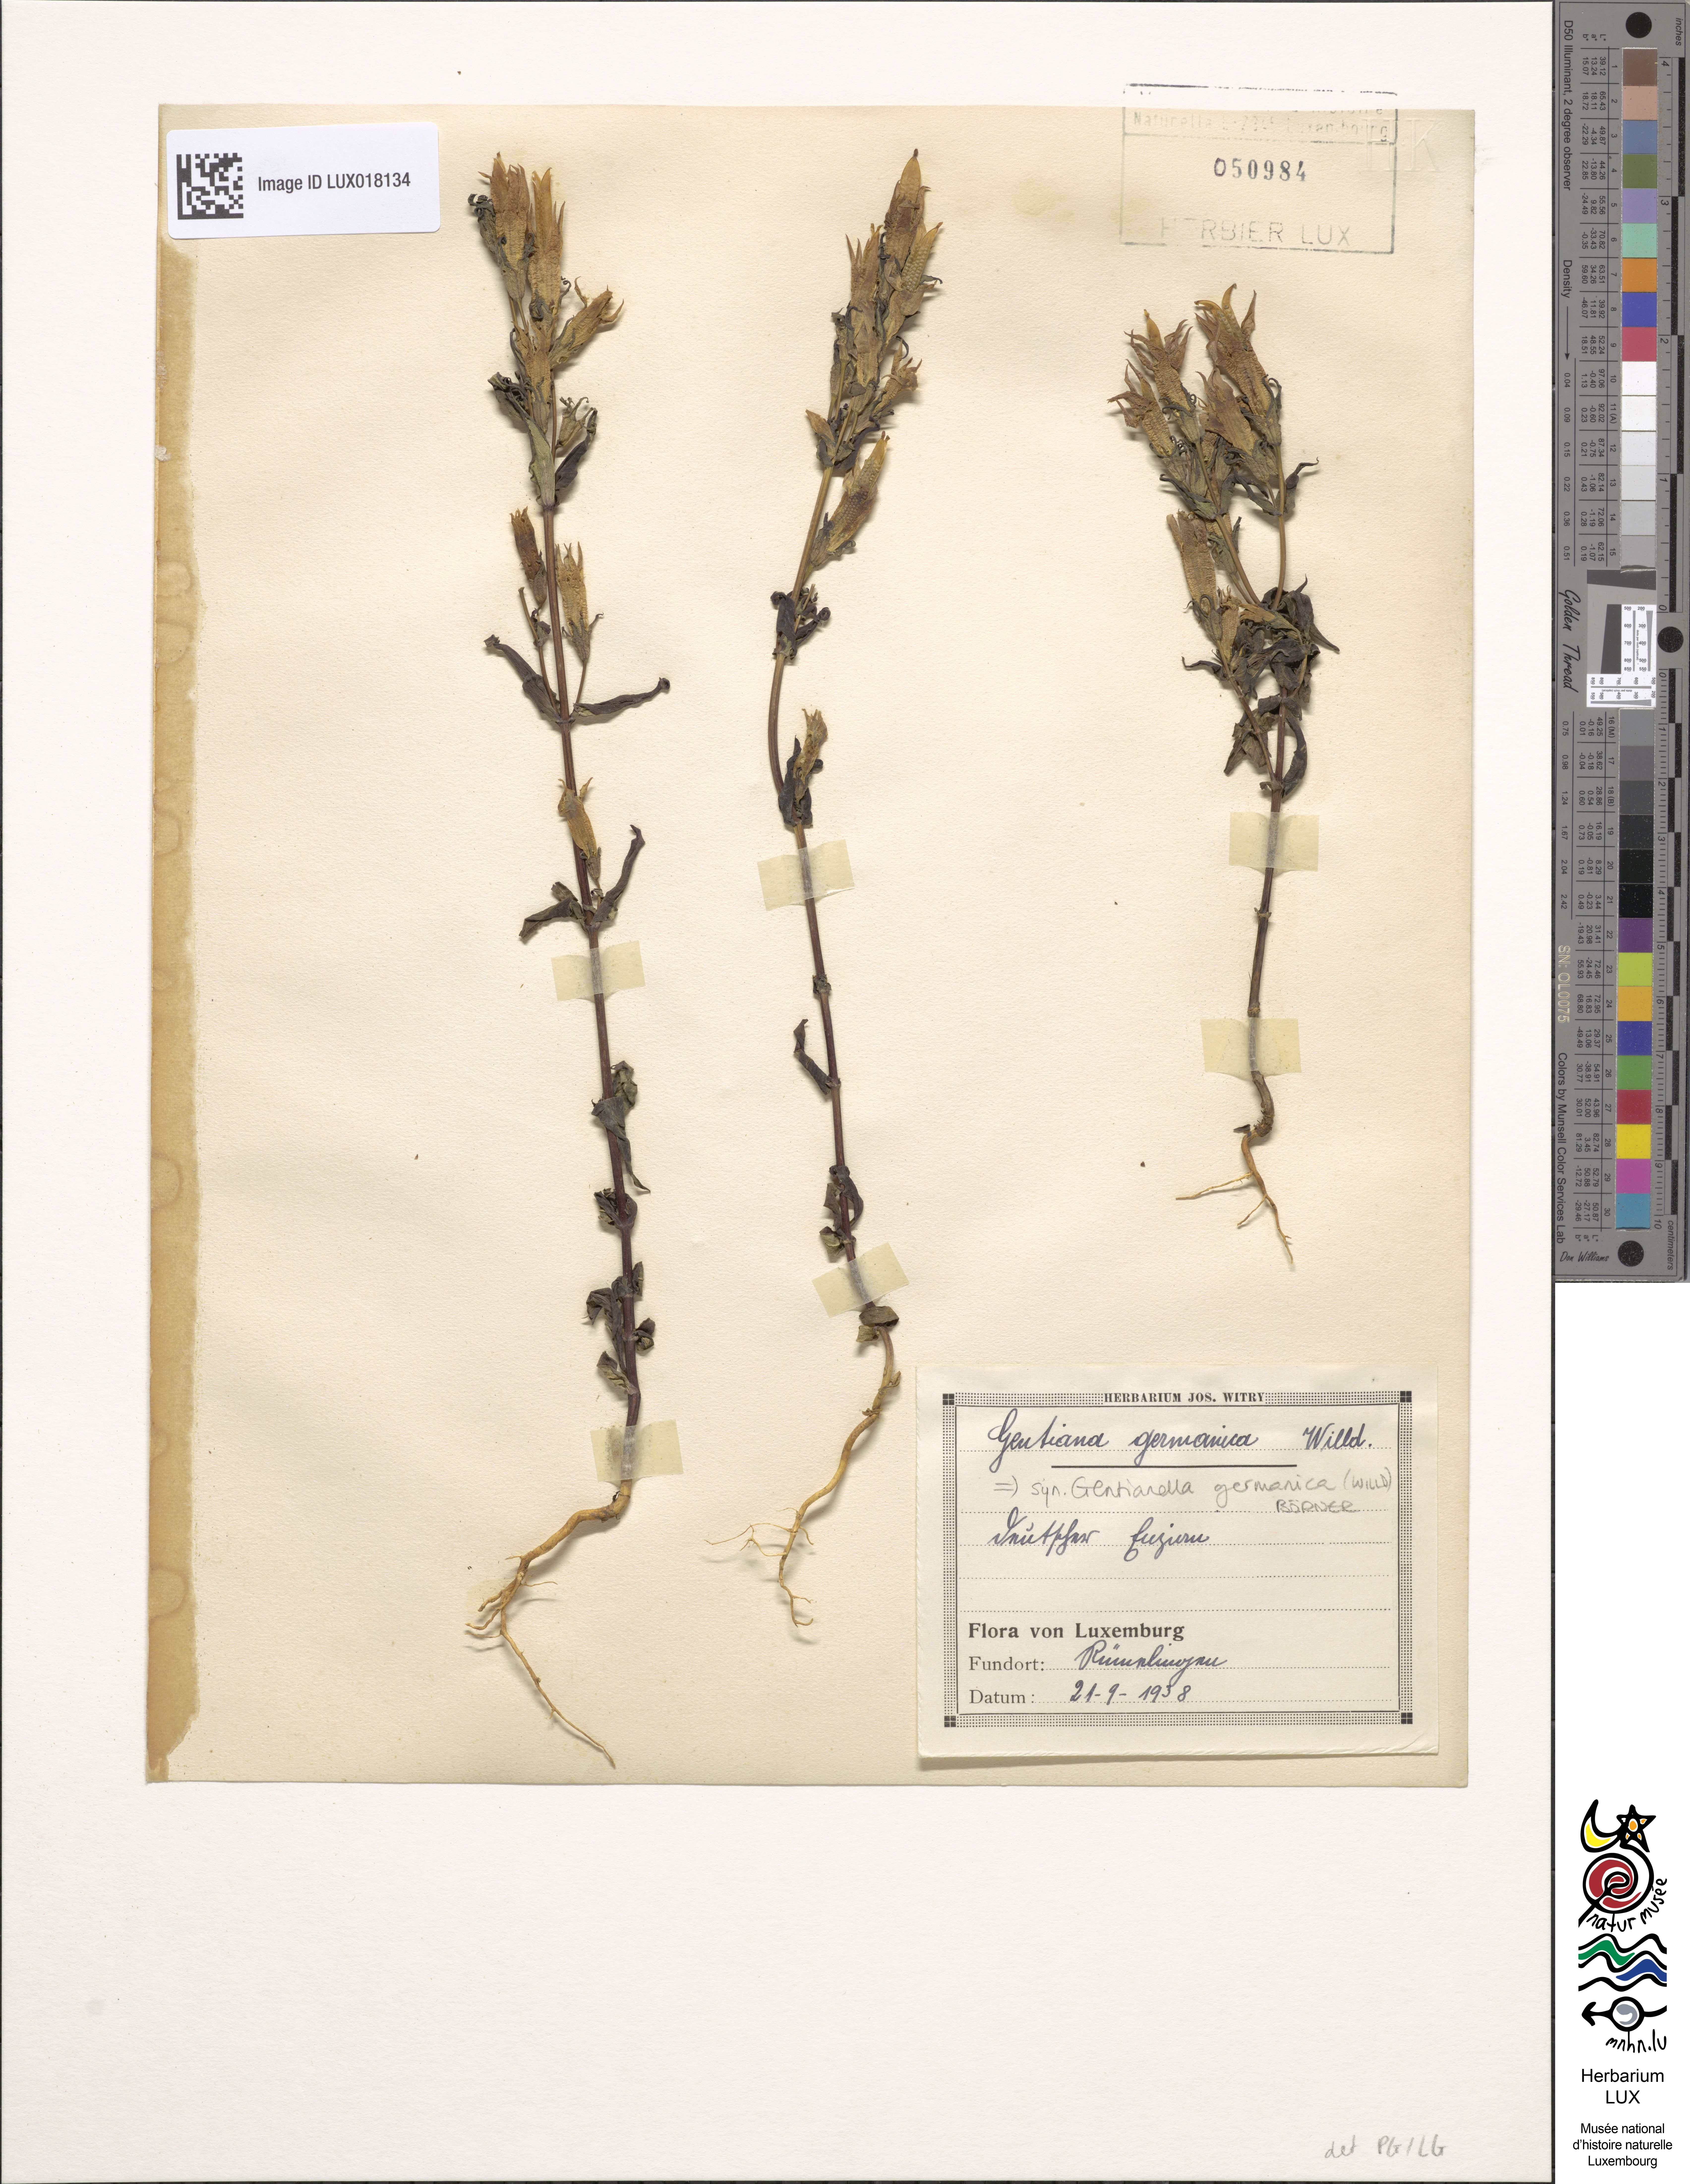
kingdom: Plantae
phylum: Tracheophyta
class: Magnoliopsida
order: Gentianales
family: Gentianaceae
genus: Gentianella
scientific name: Gentianella germanica
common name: Chiltern-gentian
